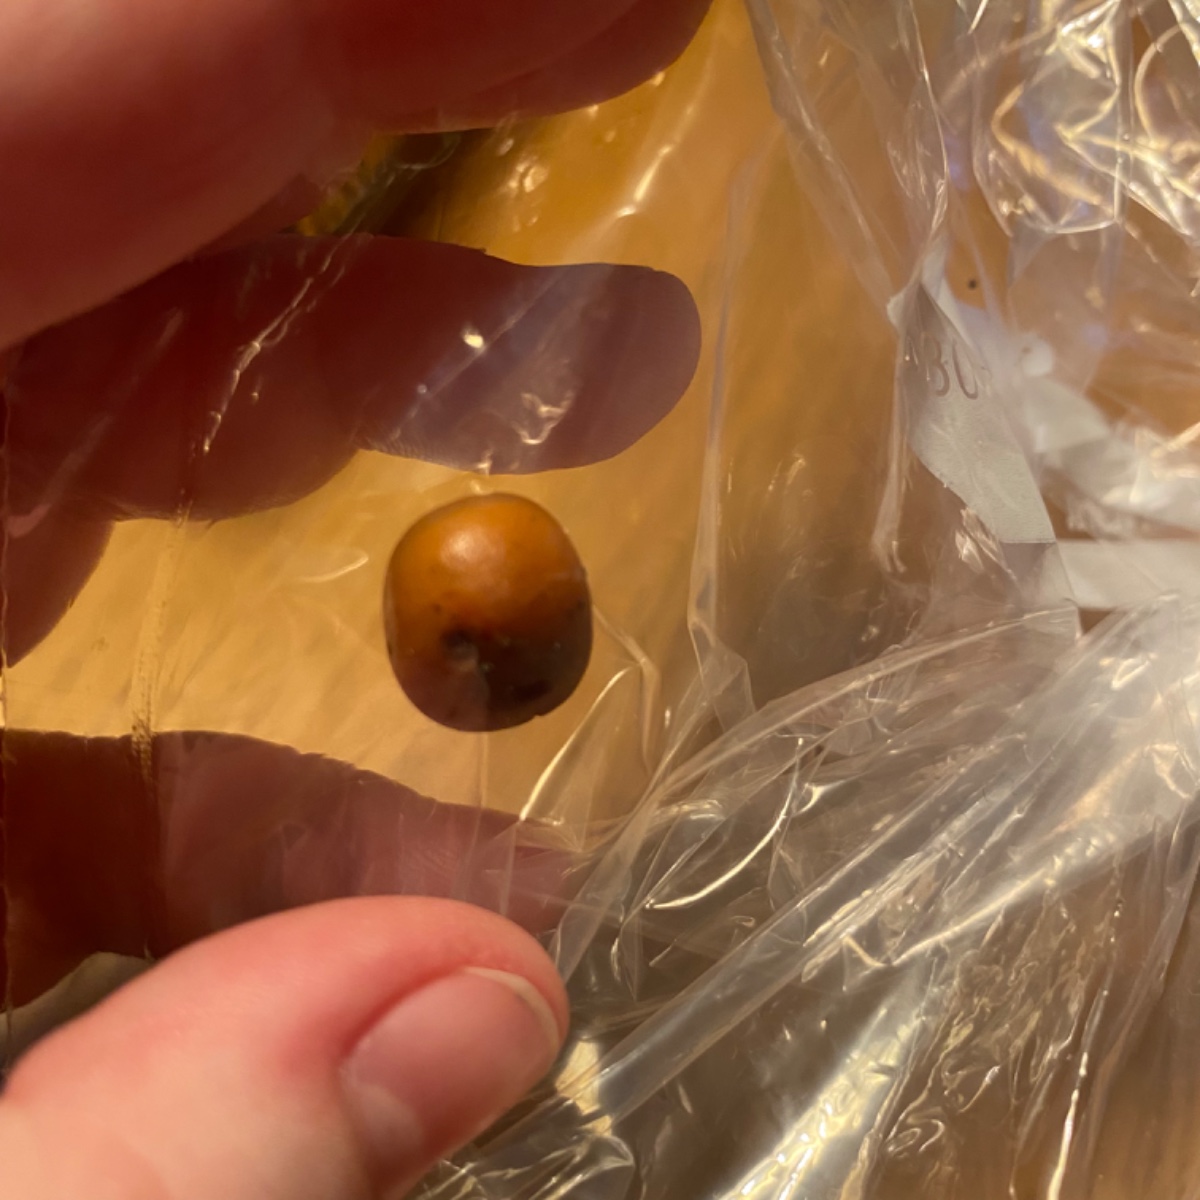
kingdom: Fungi
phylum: Basidiomycota
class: Agaricomycetes
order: Agaricales
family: Physalacriaceae
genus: Flammulina
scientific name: Flammulina
